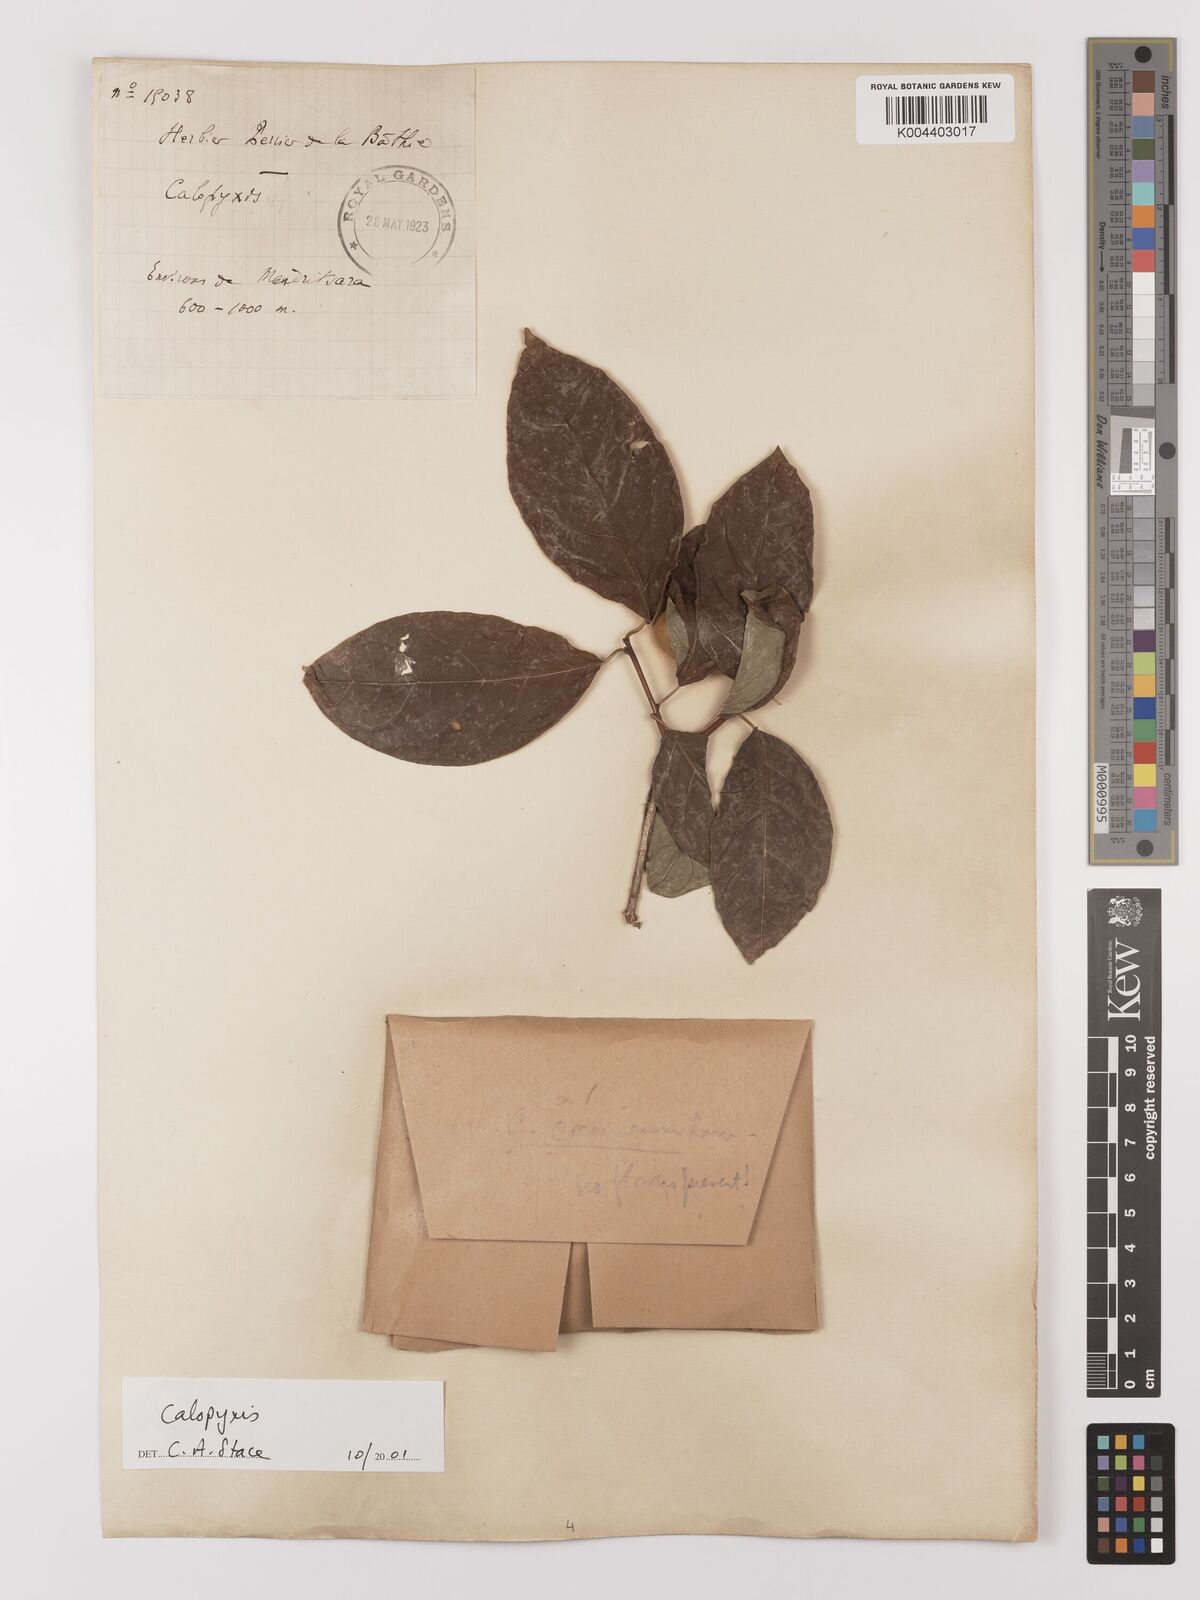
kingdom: Plantae
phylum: Tracheophyta
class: Magnoliopsida
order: Myrtales
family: Combretaceae
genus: Combretum
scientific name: Combretum
